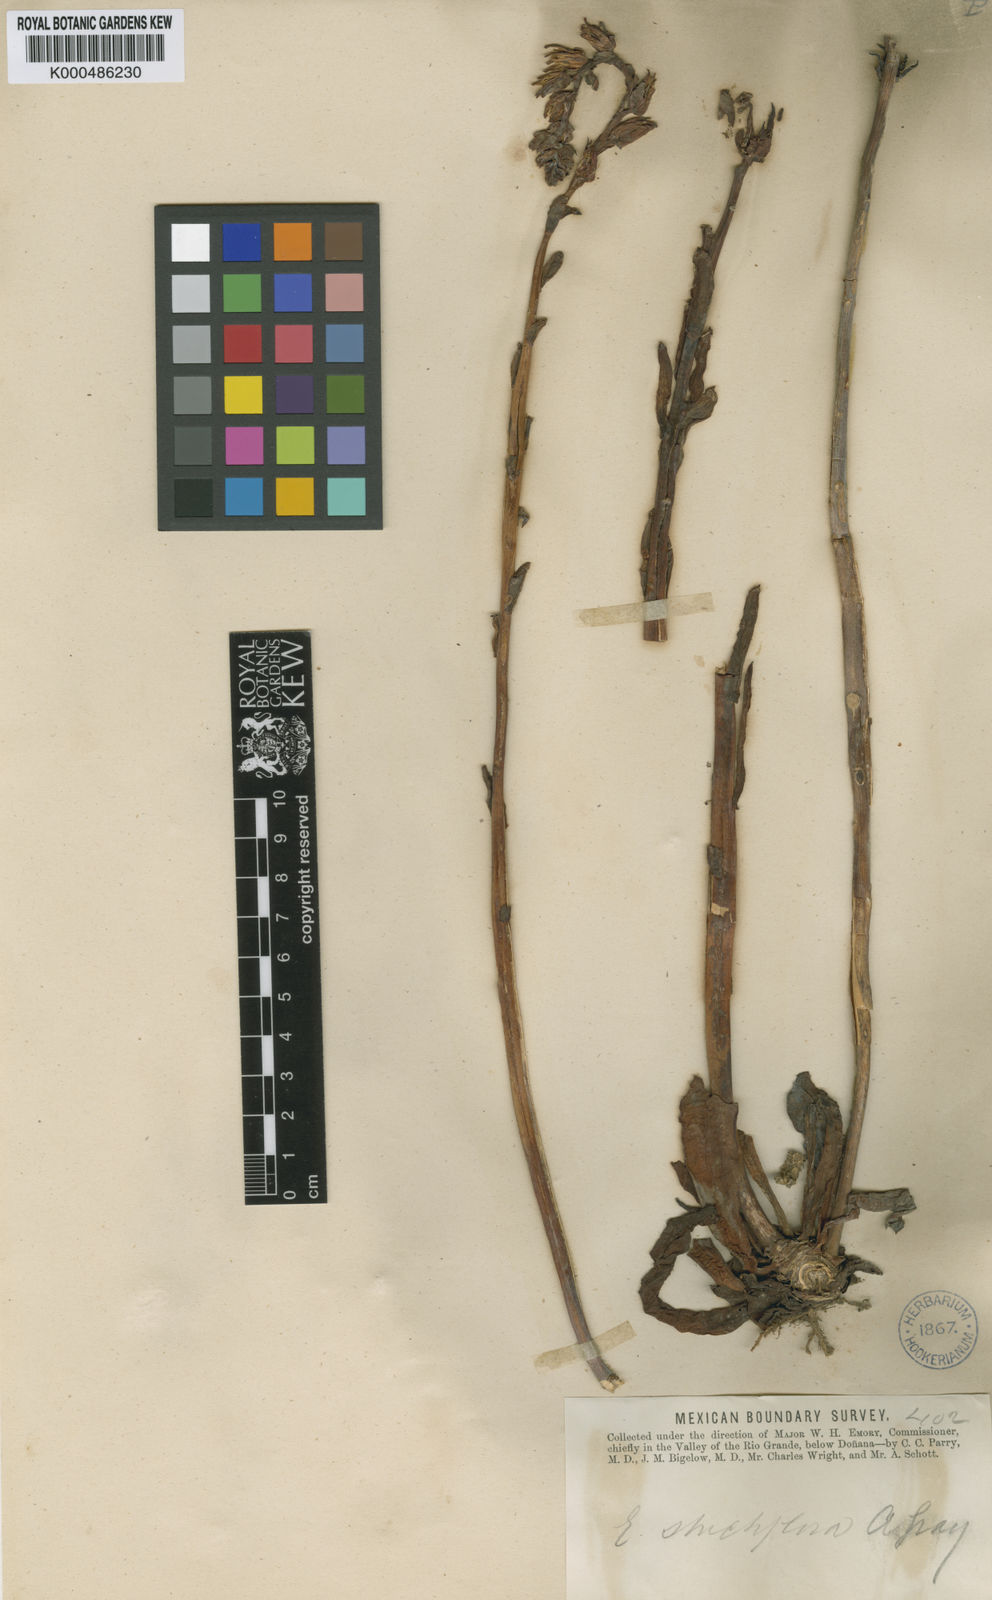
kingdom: Plantae
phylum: Tracheophyta
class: Magnoliopsida
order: Saxifragales
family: Crassulaceae
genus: Echeveria
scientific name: Echeveria strictiflora
